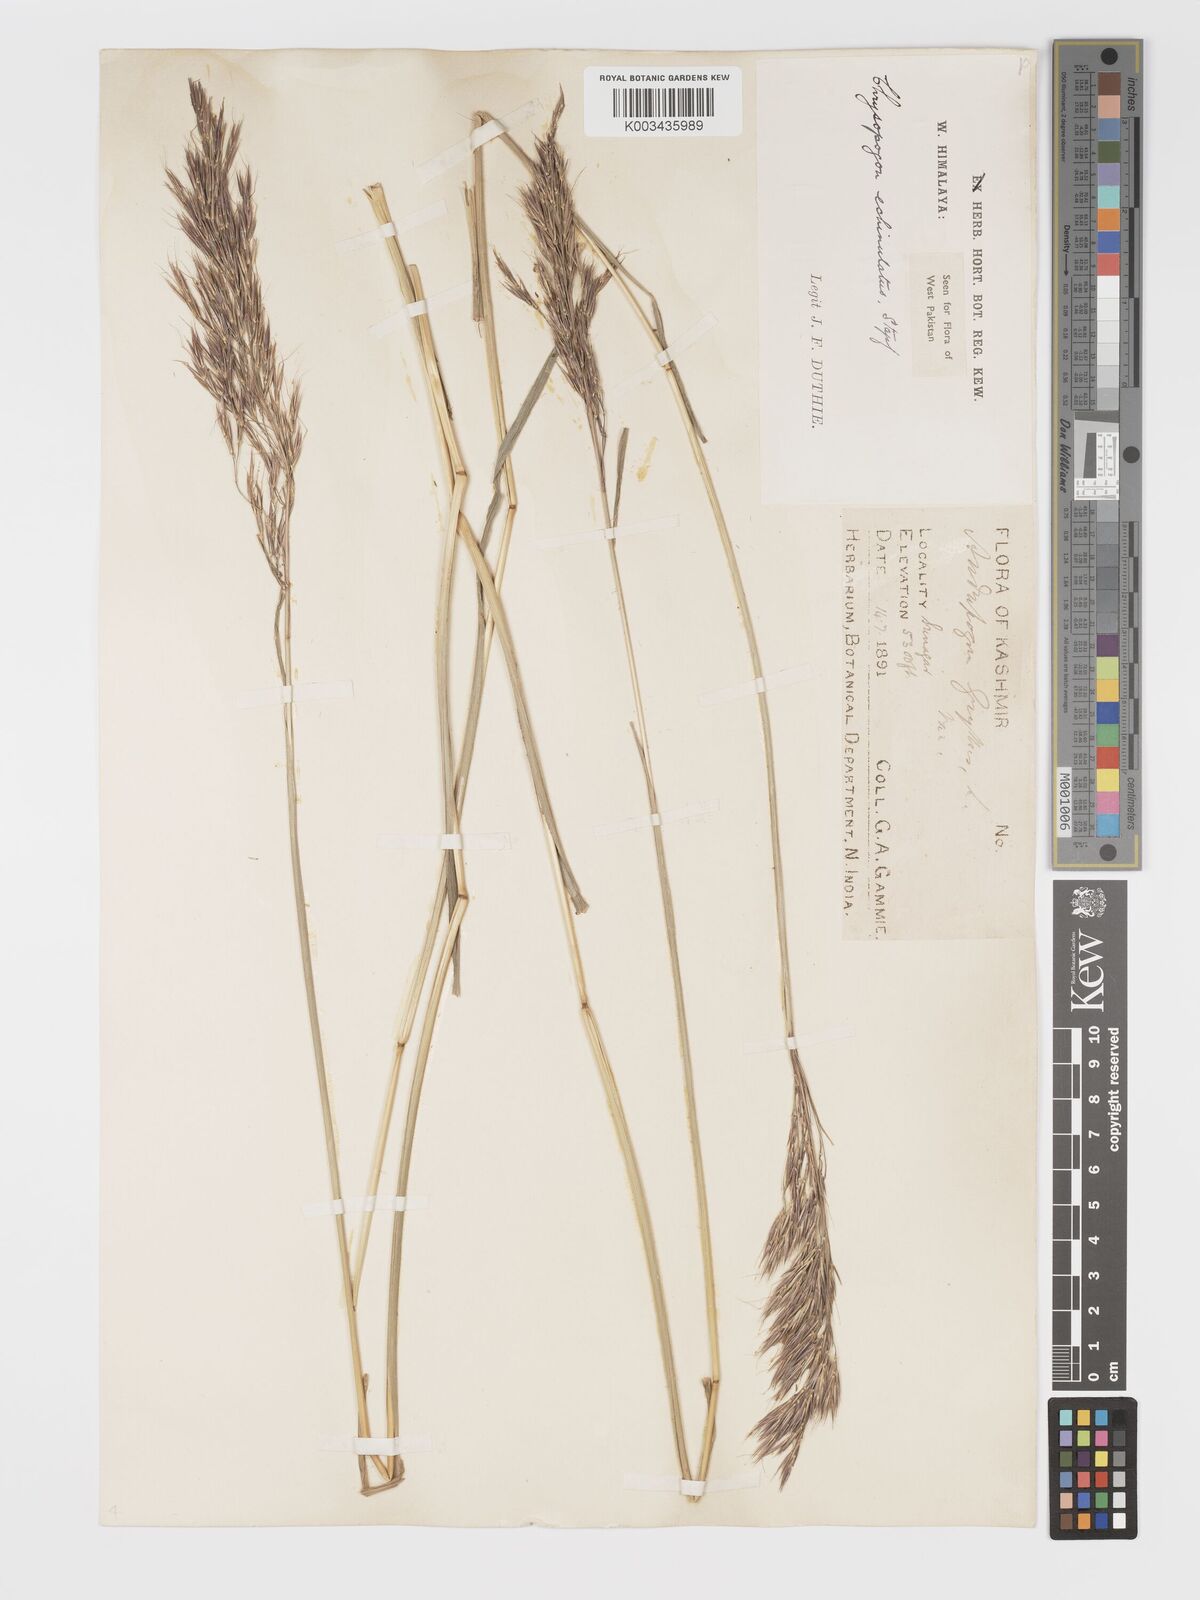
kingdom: Plantae
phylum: Tracheophyta
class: Liliopsida
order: Poales
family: Poaceae
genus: Chrysopogon
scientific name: Chrysopogon gryllus
